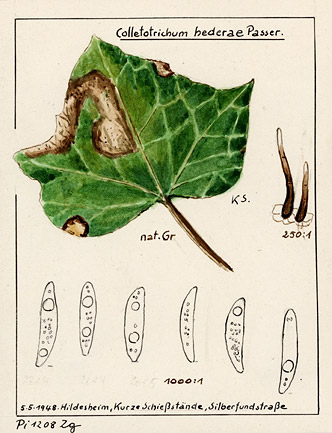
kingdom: Fungi
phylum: Ascomycota
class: Sordariomycetes
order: Glomerellales
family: Glomerellaceae
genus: Colletotrichum
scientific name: Colletotrichum hederae
